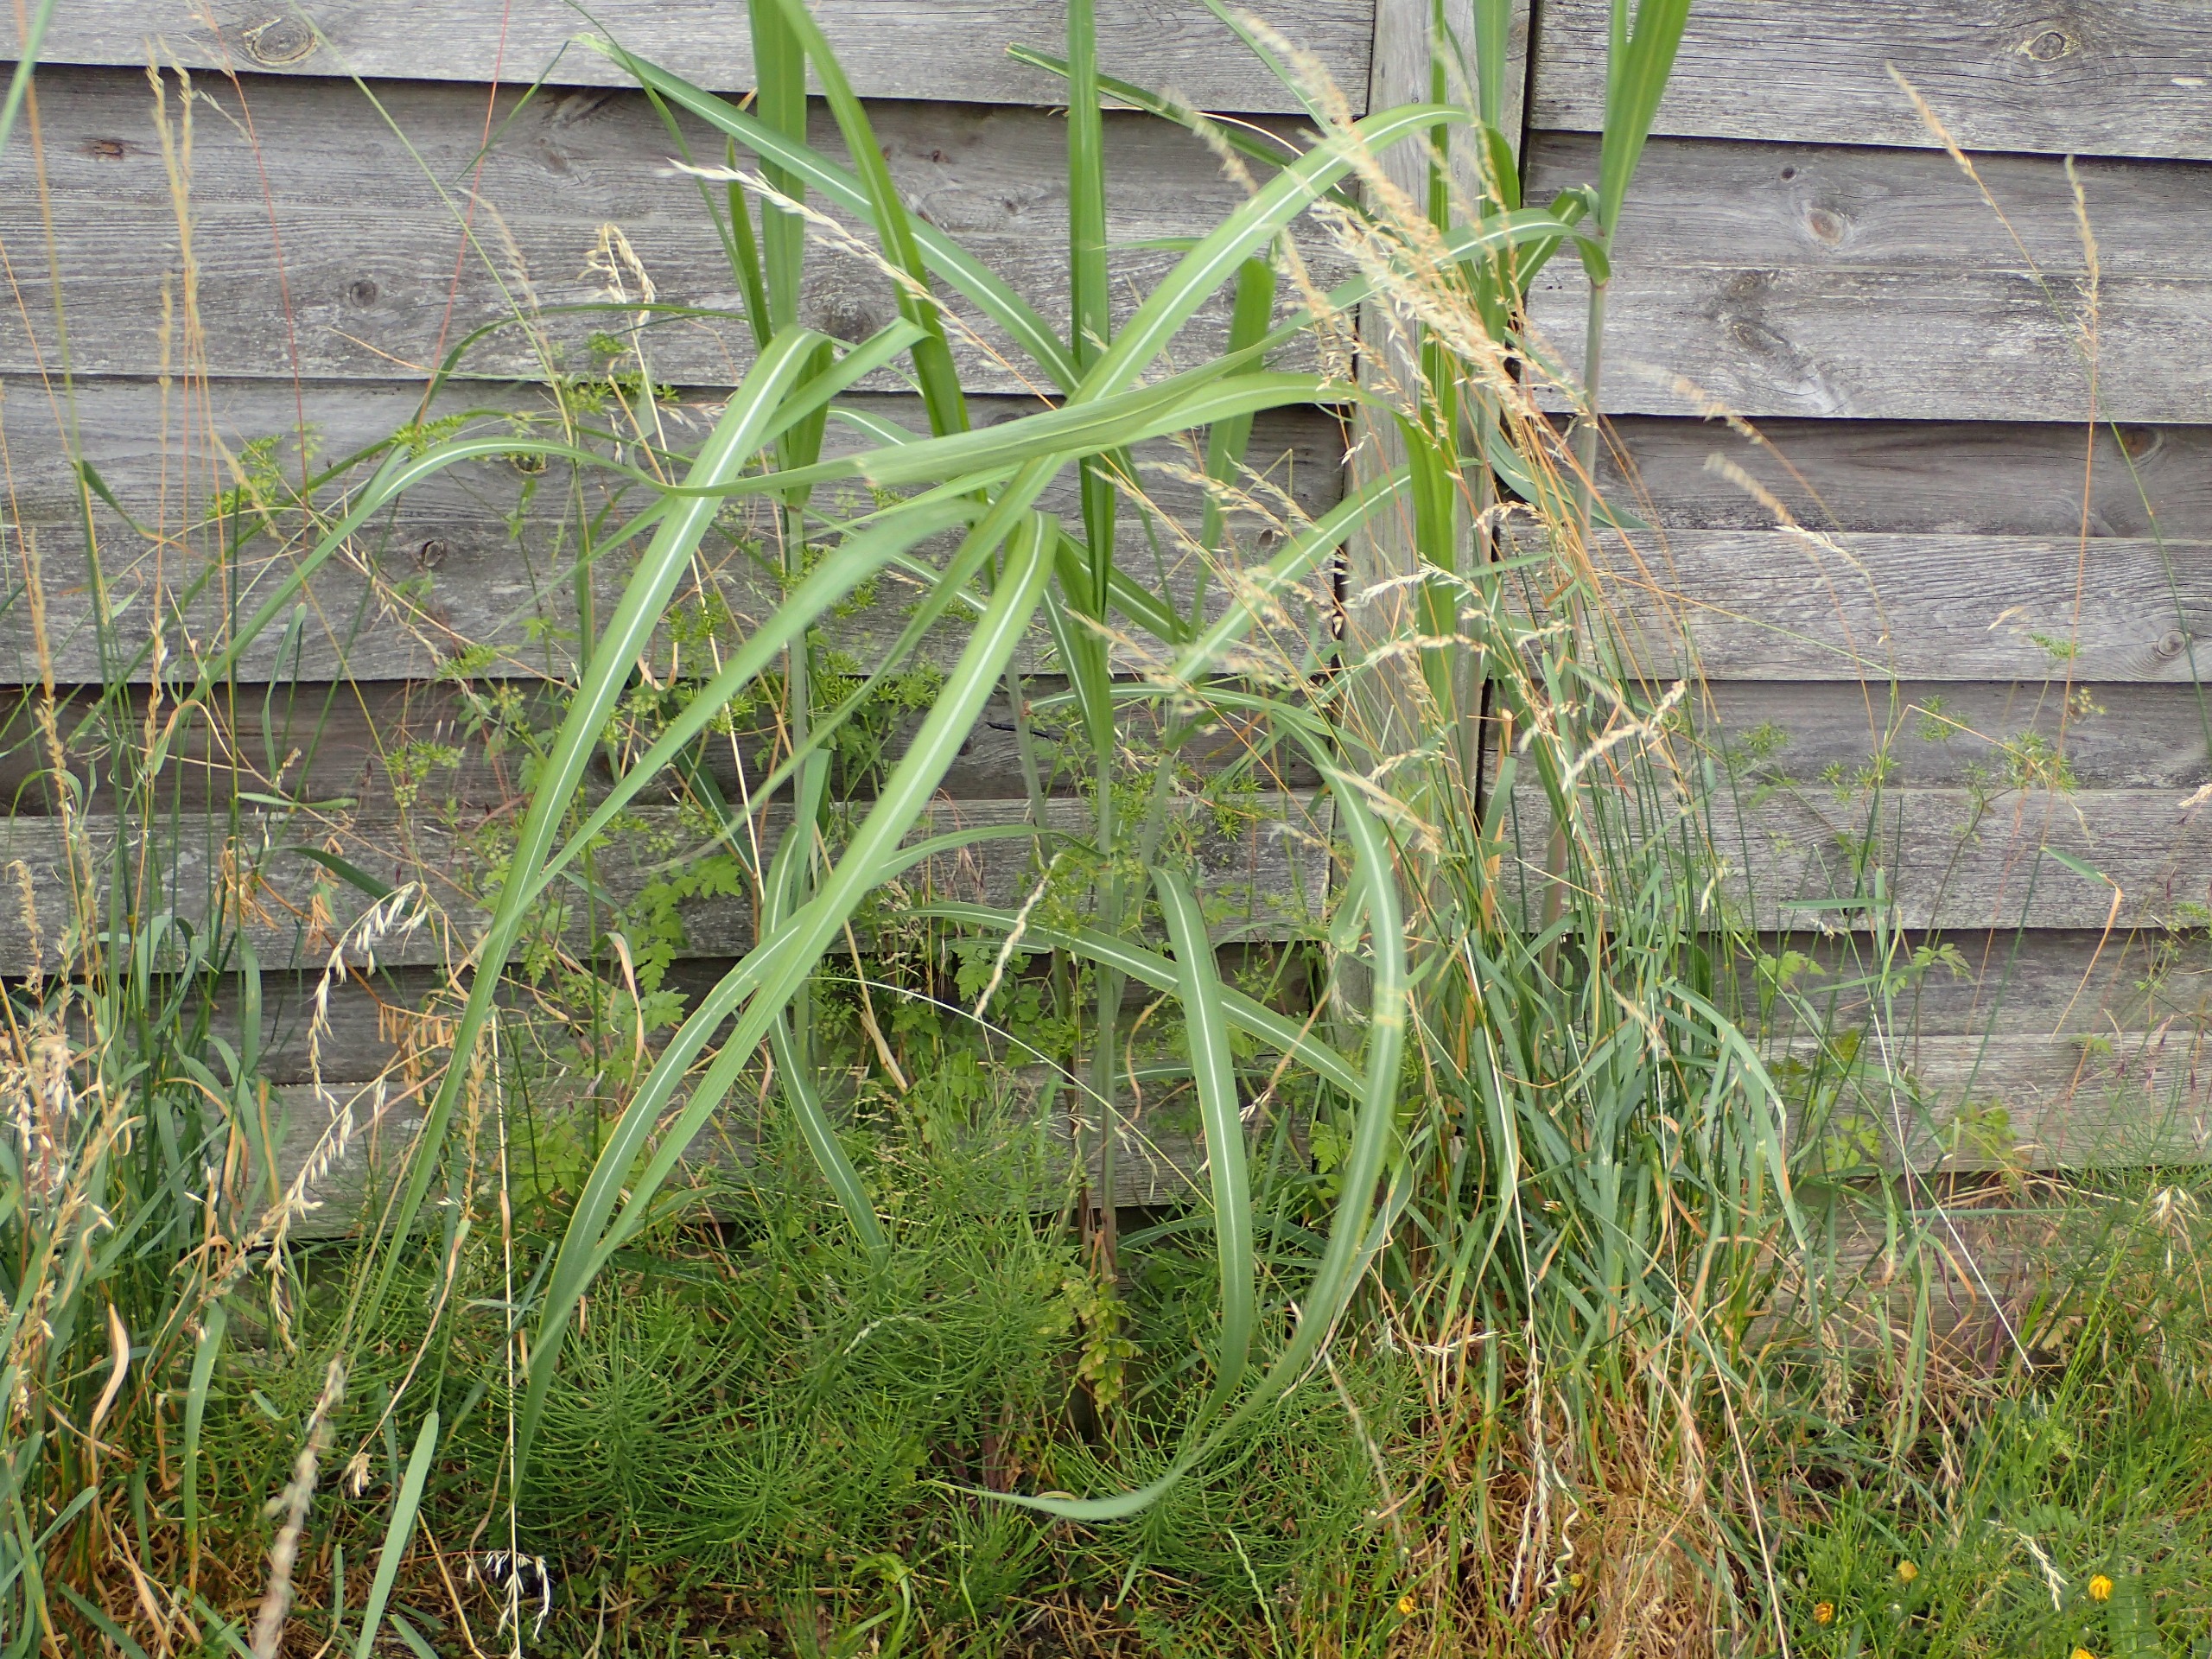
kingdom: Plantae
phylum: Tracheophyta
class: Liliopsida
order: Poales
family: Poaceae
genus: Miscanthus
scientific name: Miscanthus sinensis
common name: Elefantgræs
